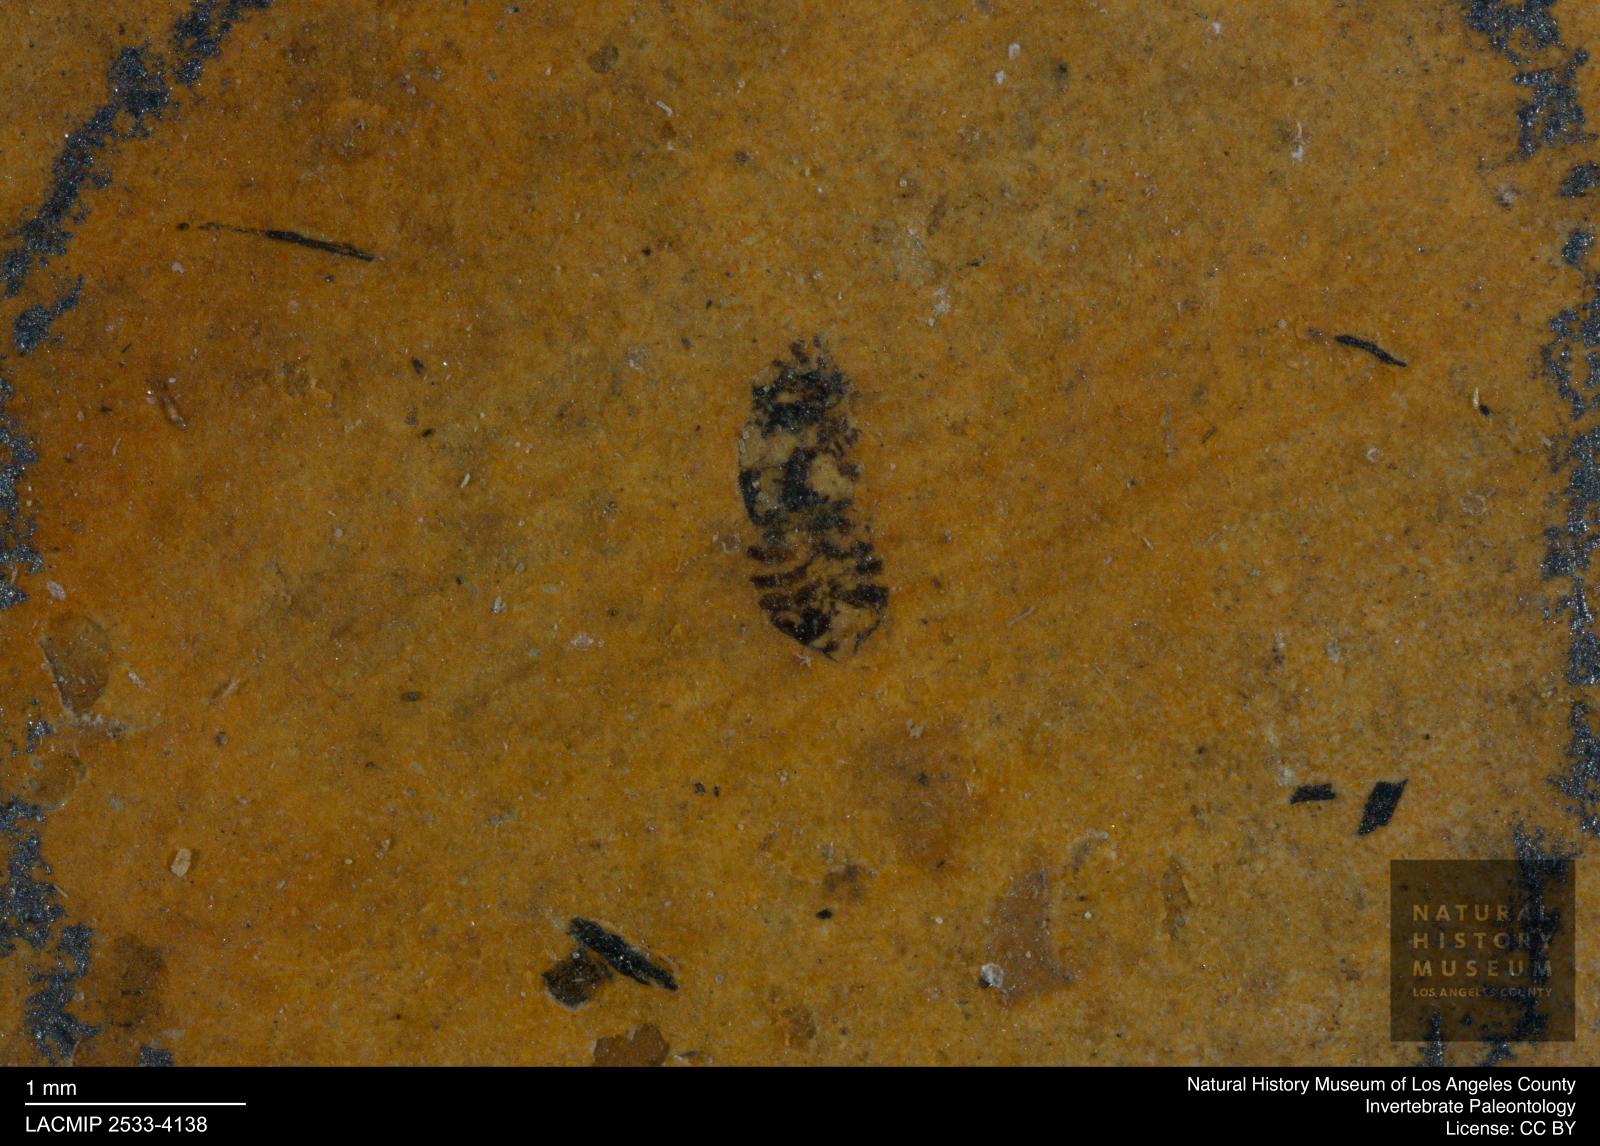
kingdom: Animalia
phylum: Arthropoda
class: Insecta
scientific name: Insecta
